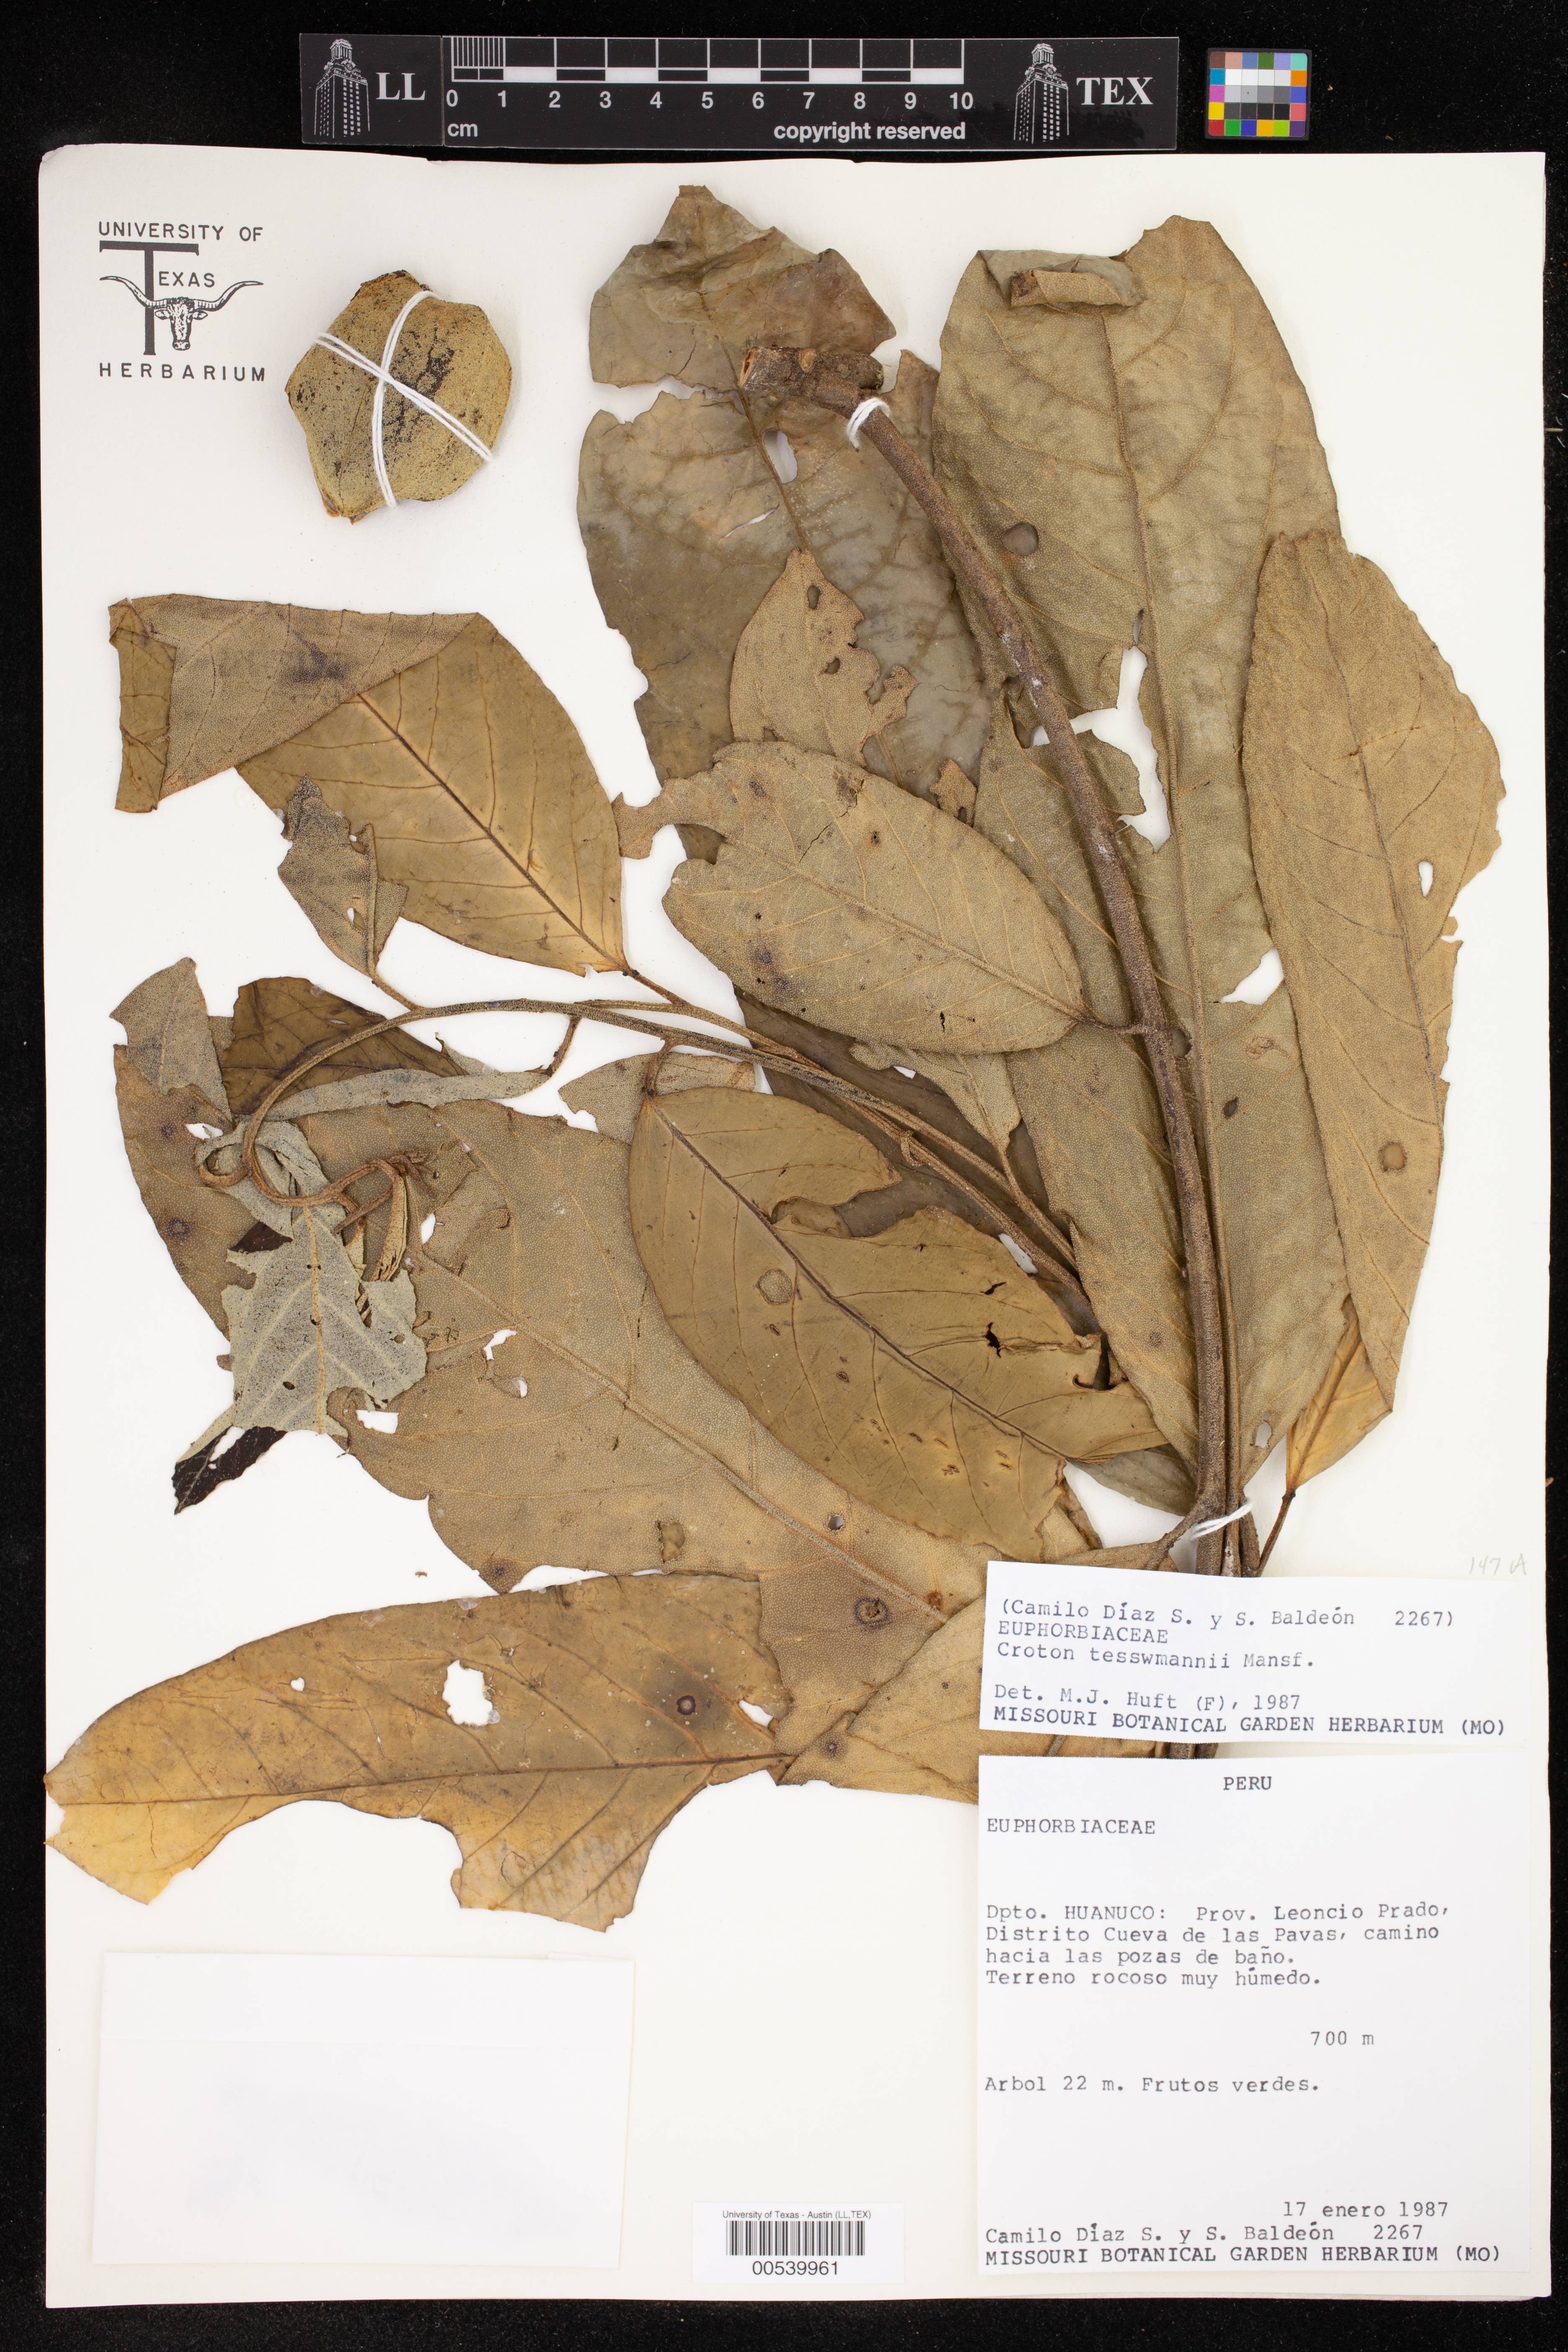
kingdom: Plantae
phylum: Tracheophyta
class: Magnoliopsida
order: Malpighiales
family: Euphorbiaceae
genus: Croton
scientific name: Croton tessmannii
